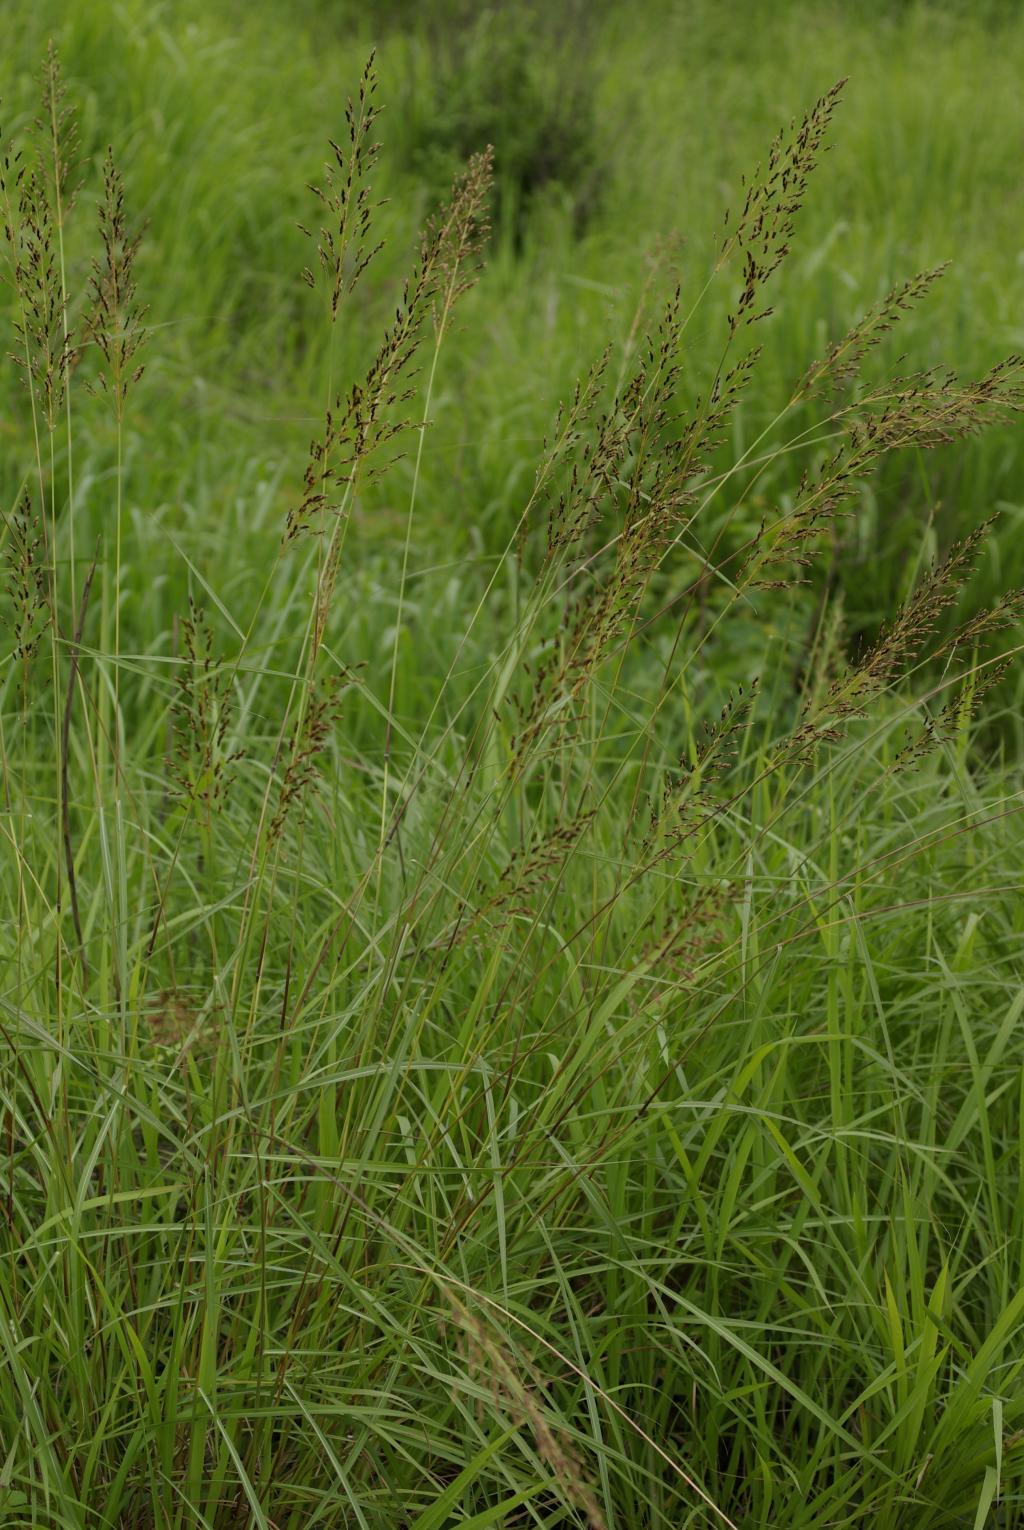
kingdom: Plantae
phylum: Tracheophyta
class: Liliopsida
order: Poales
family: Poaceae
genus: Sorghum
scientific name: Sorghum nitidum
